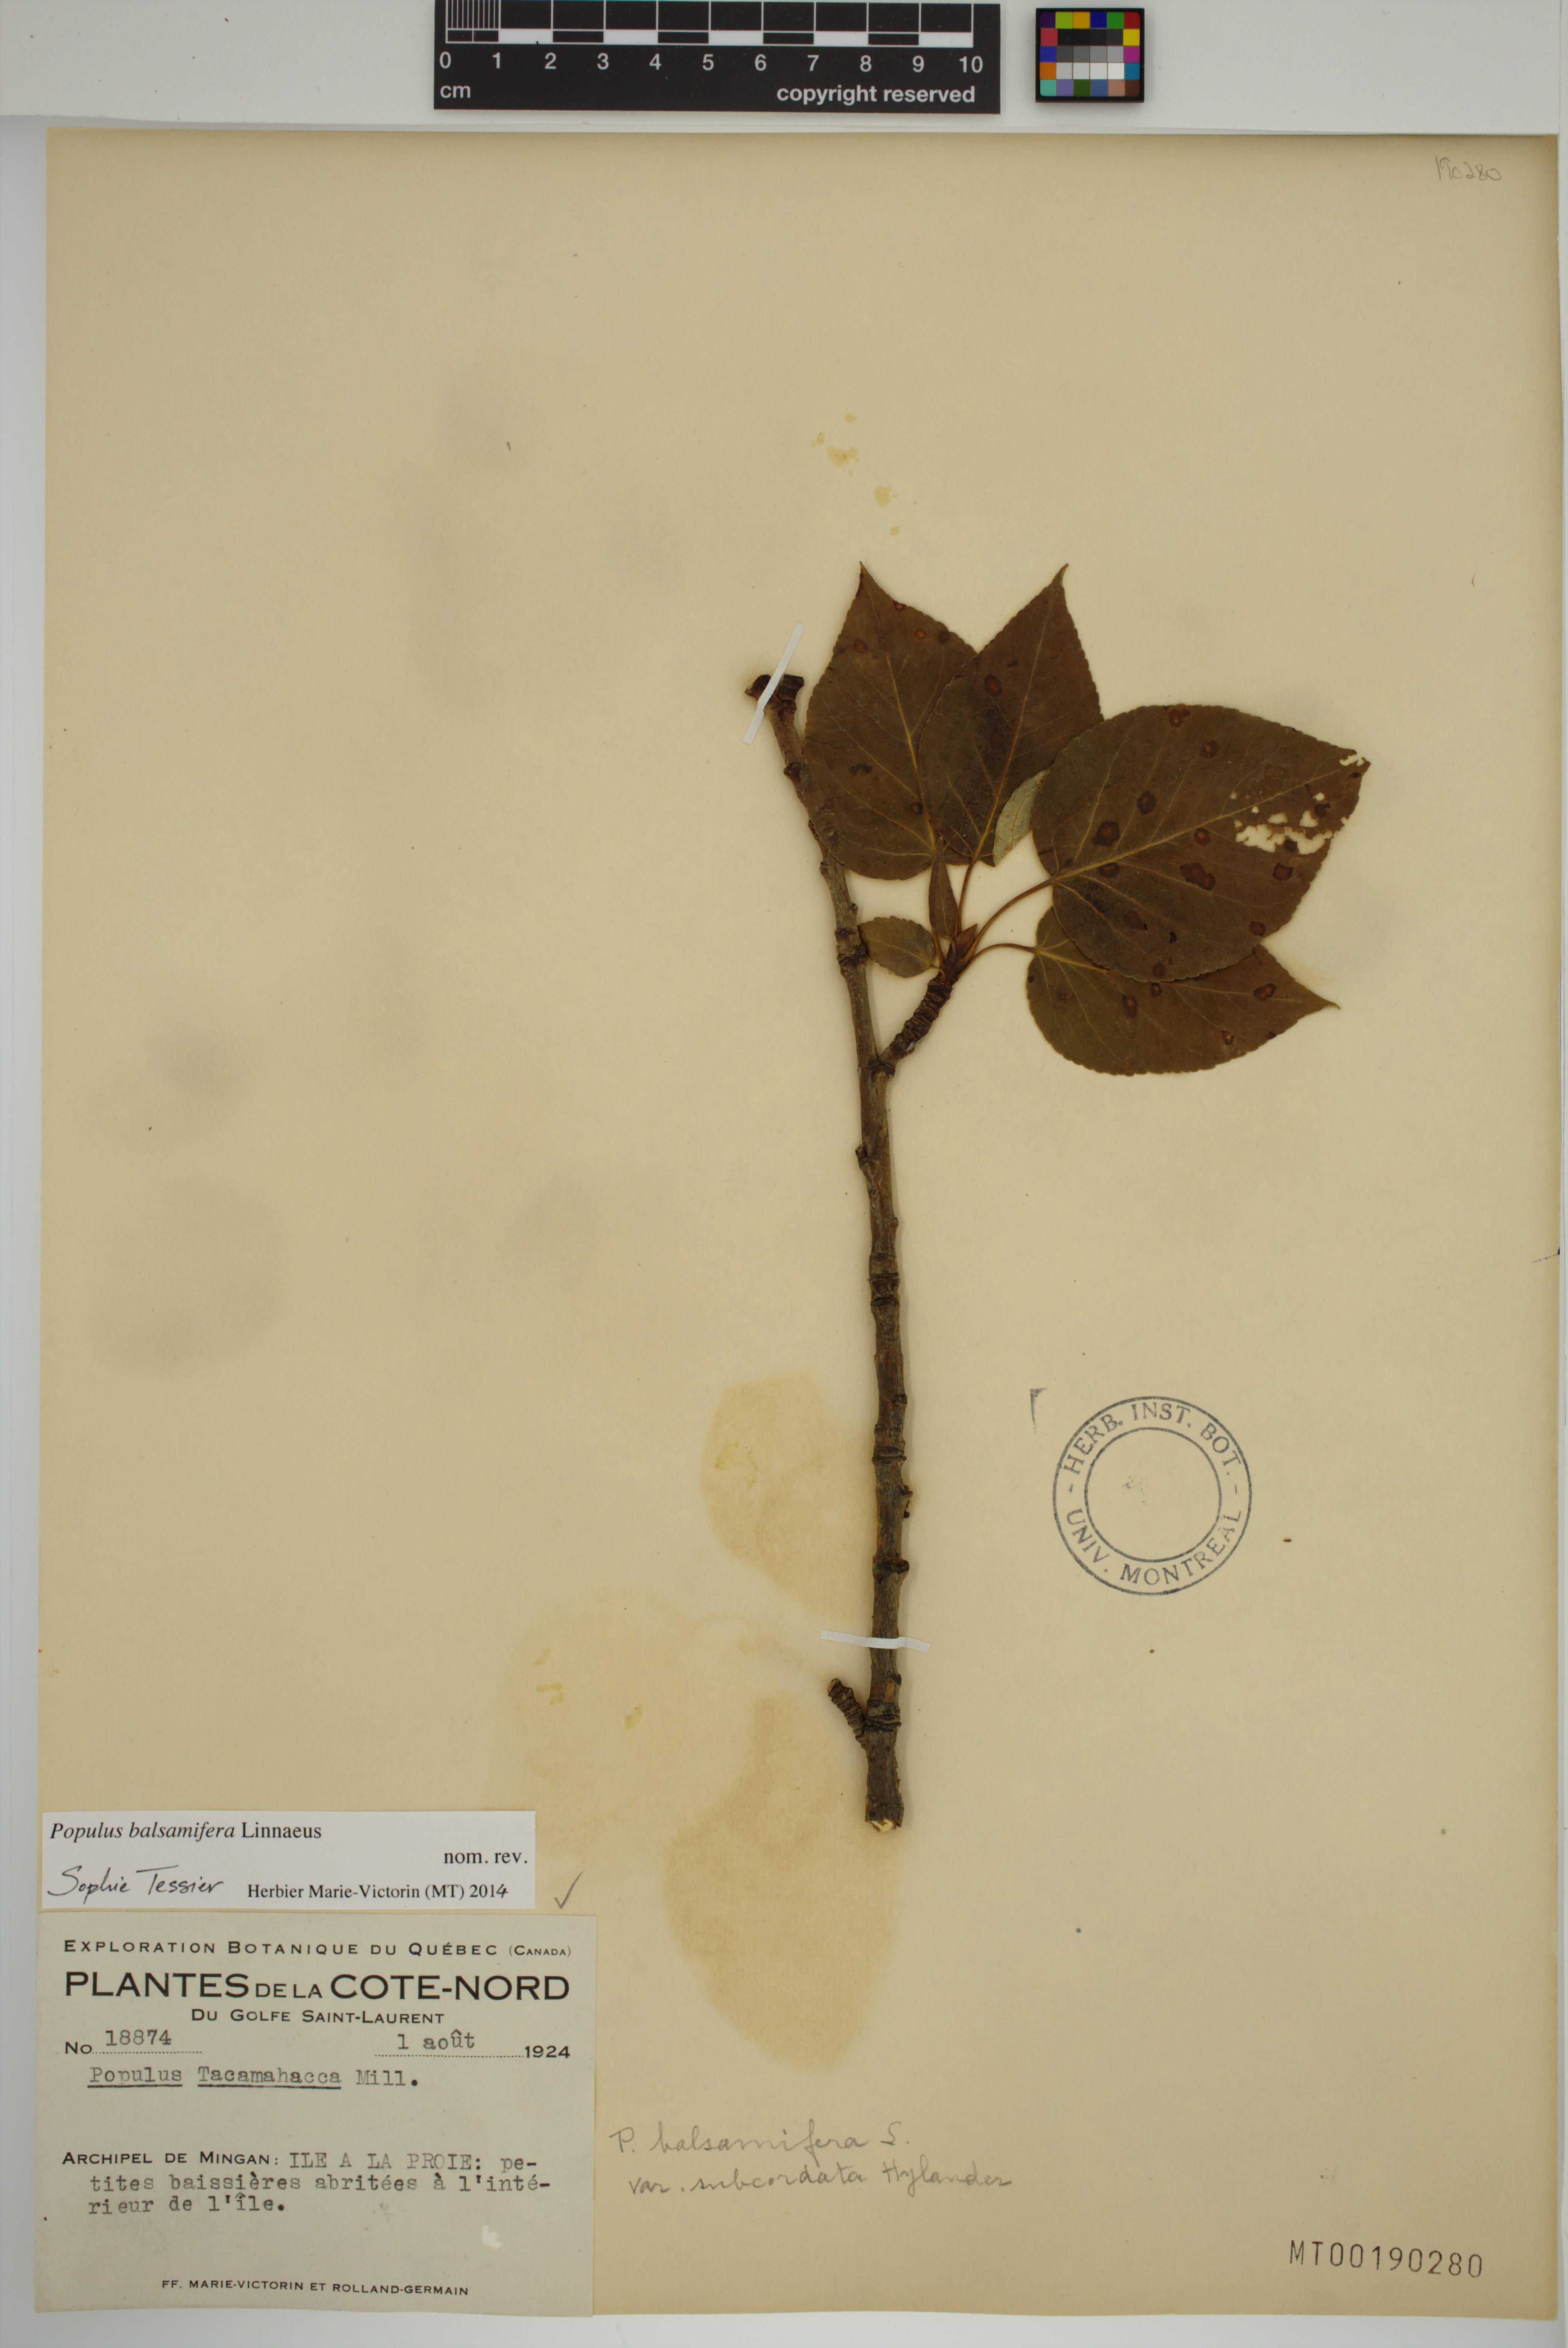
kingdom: Plantae
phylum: Tracheophyta
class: Magnoliopsida
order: Malpighiales
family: Salicaceae
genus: Populus
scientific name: Populus balsamifera
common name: Balsam poplar
